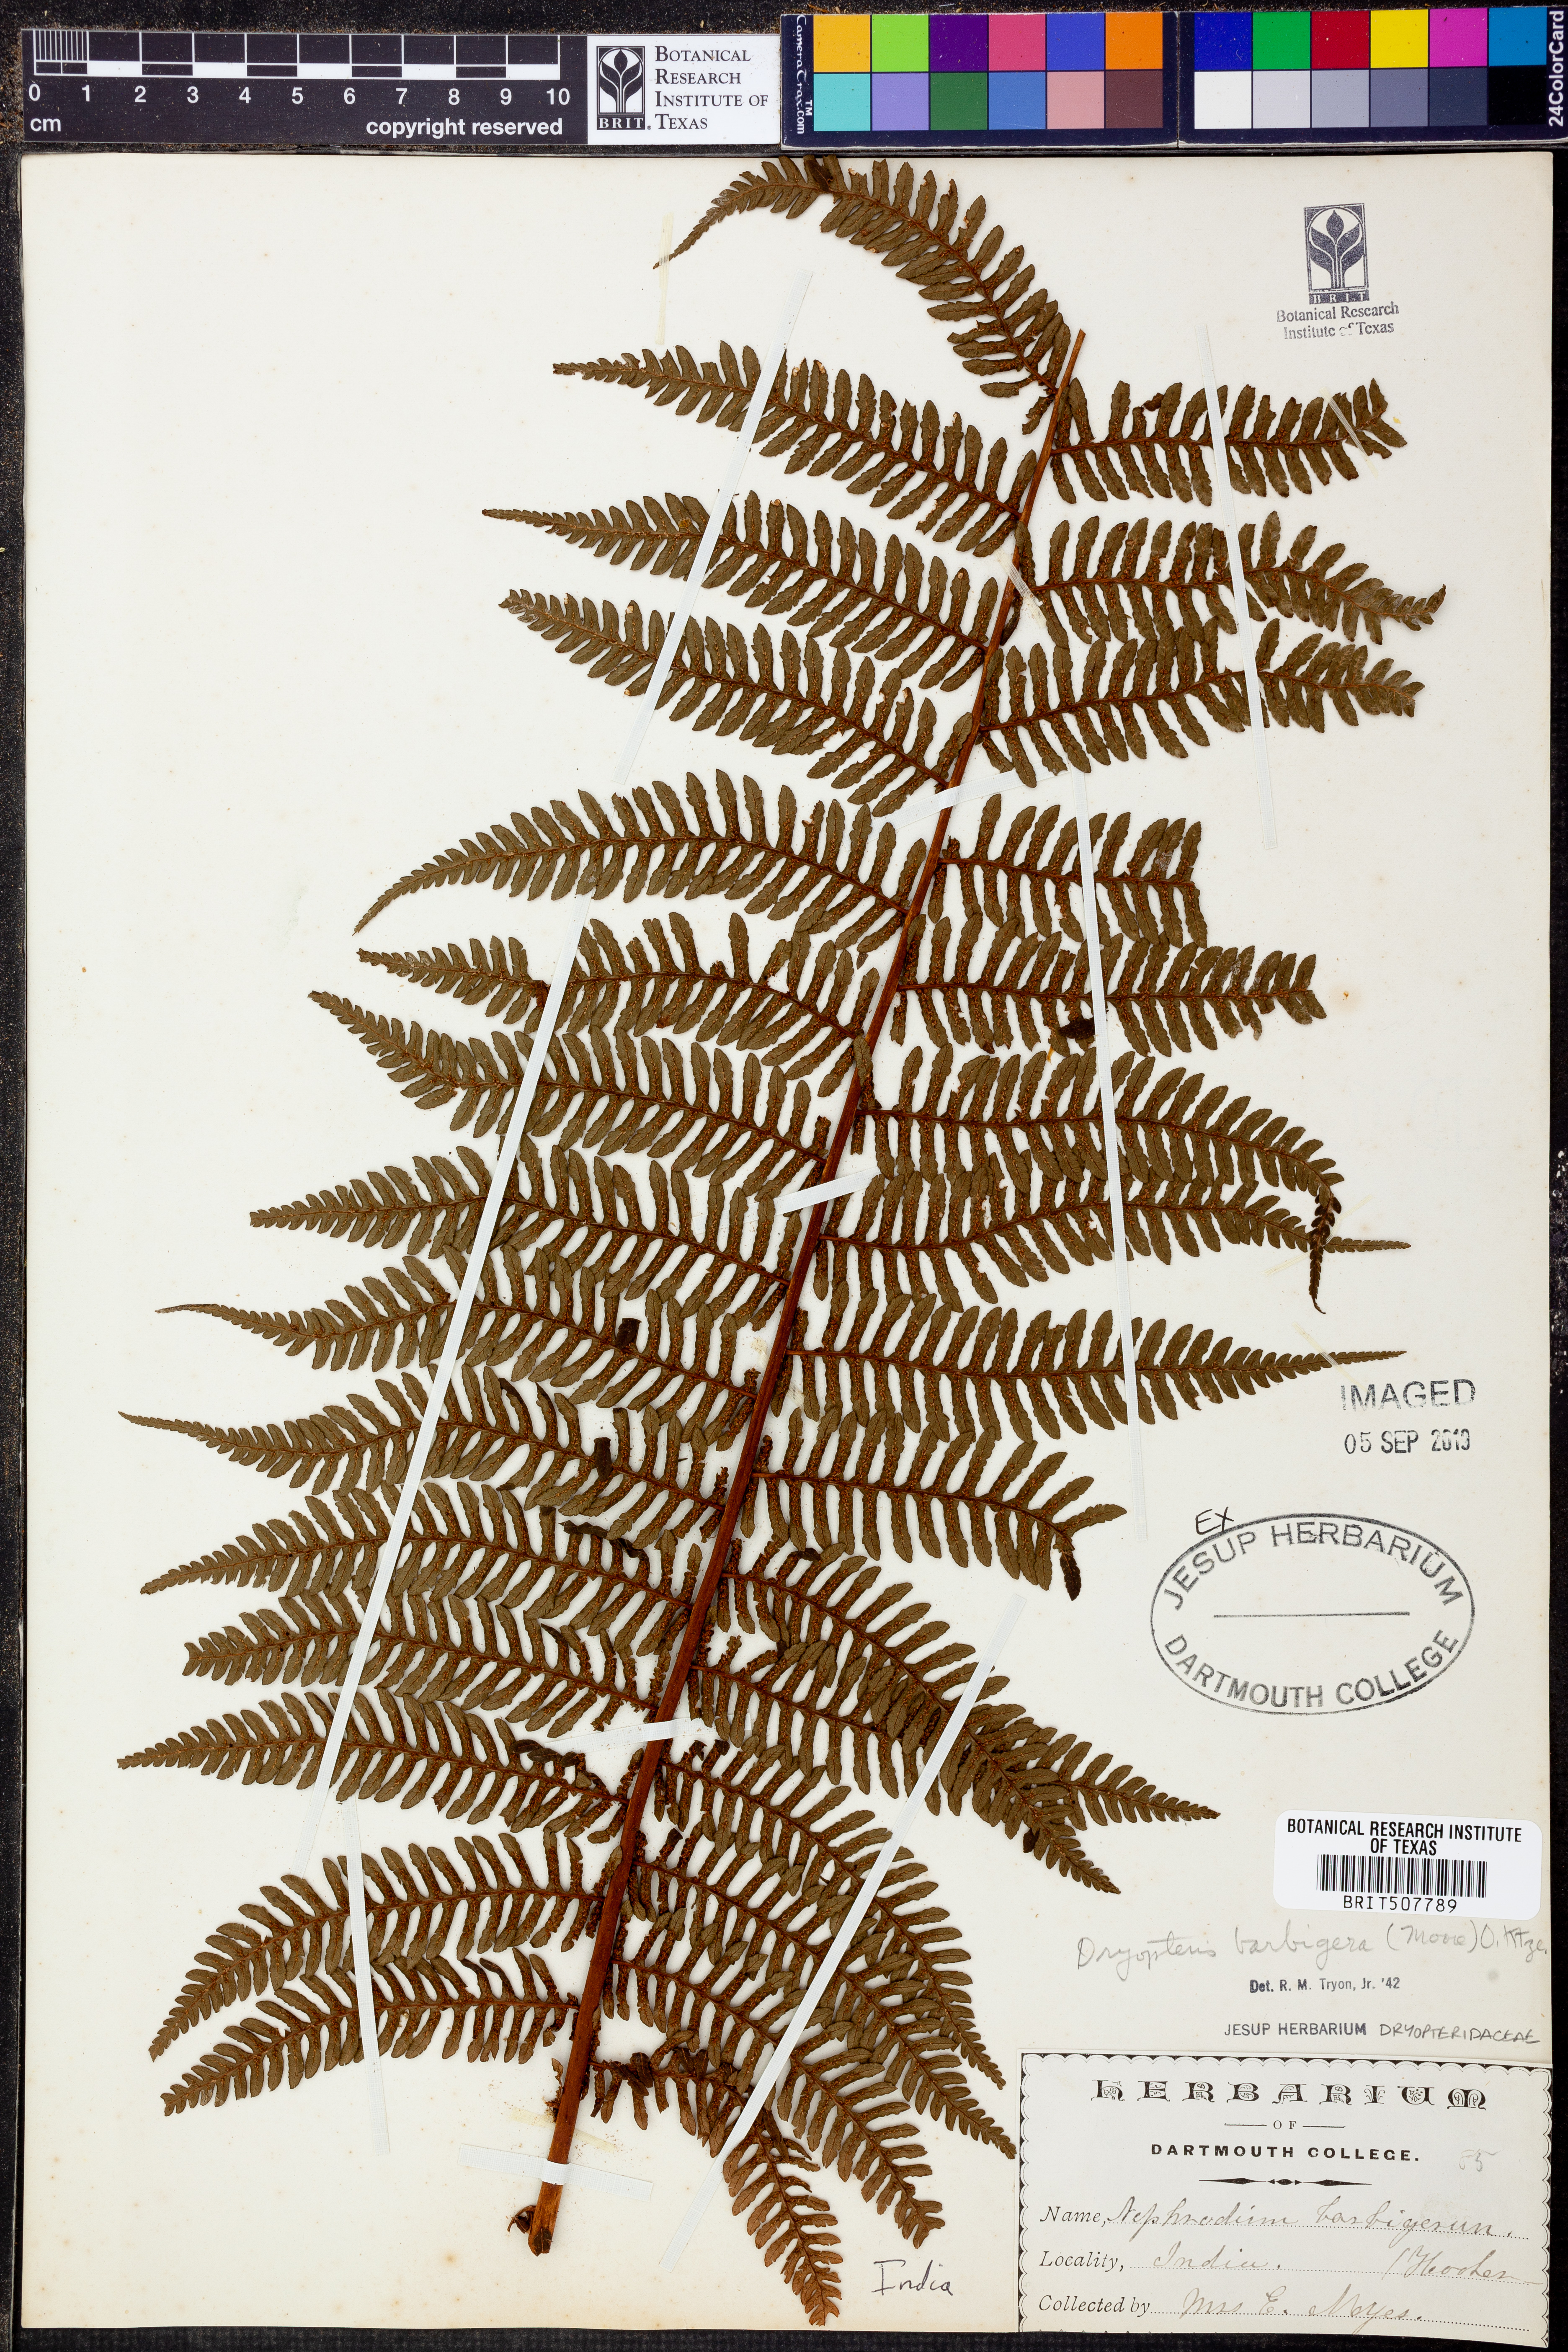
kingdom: Plantae
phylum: Tracheophyta
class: Polypodiopsida
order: Polypodiales
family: Dryopteridaceae
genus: Dryopteris
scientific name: Dryopteris barbigera
